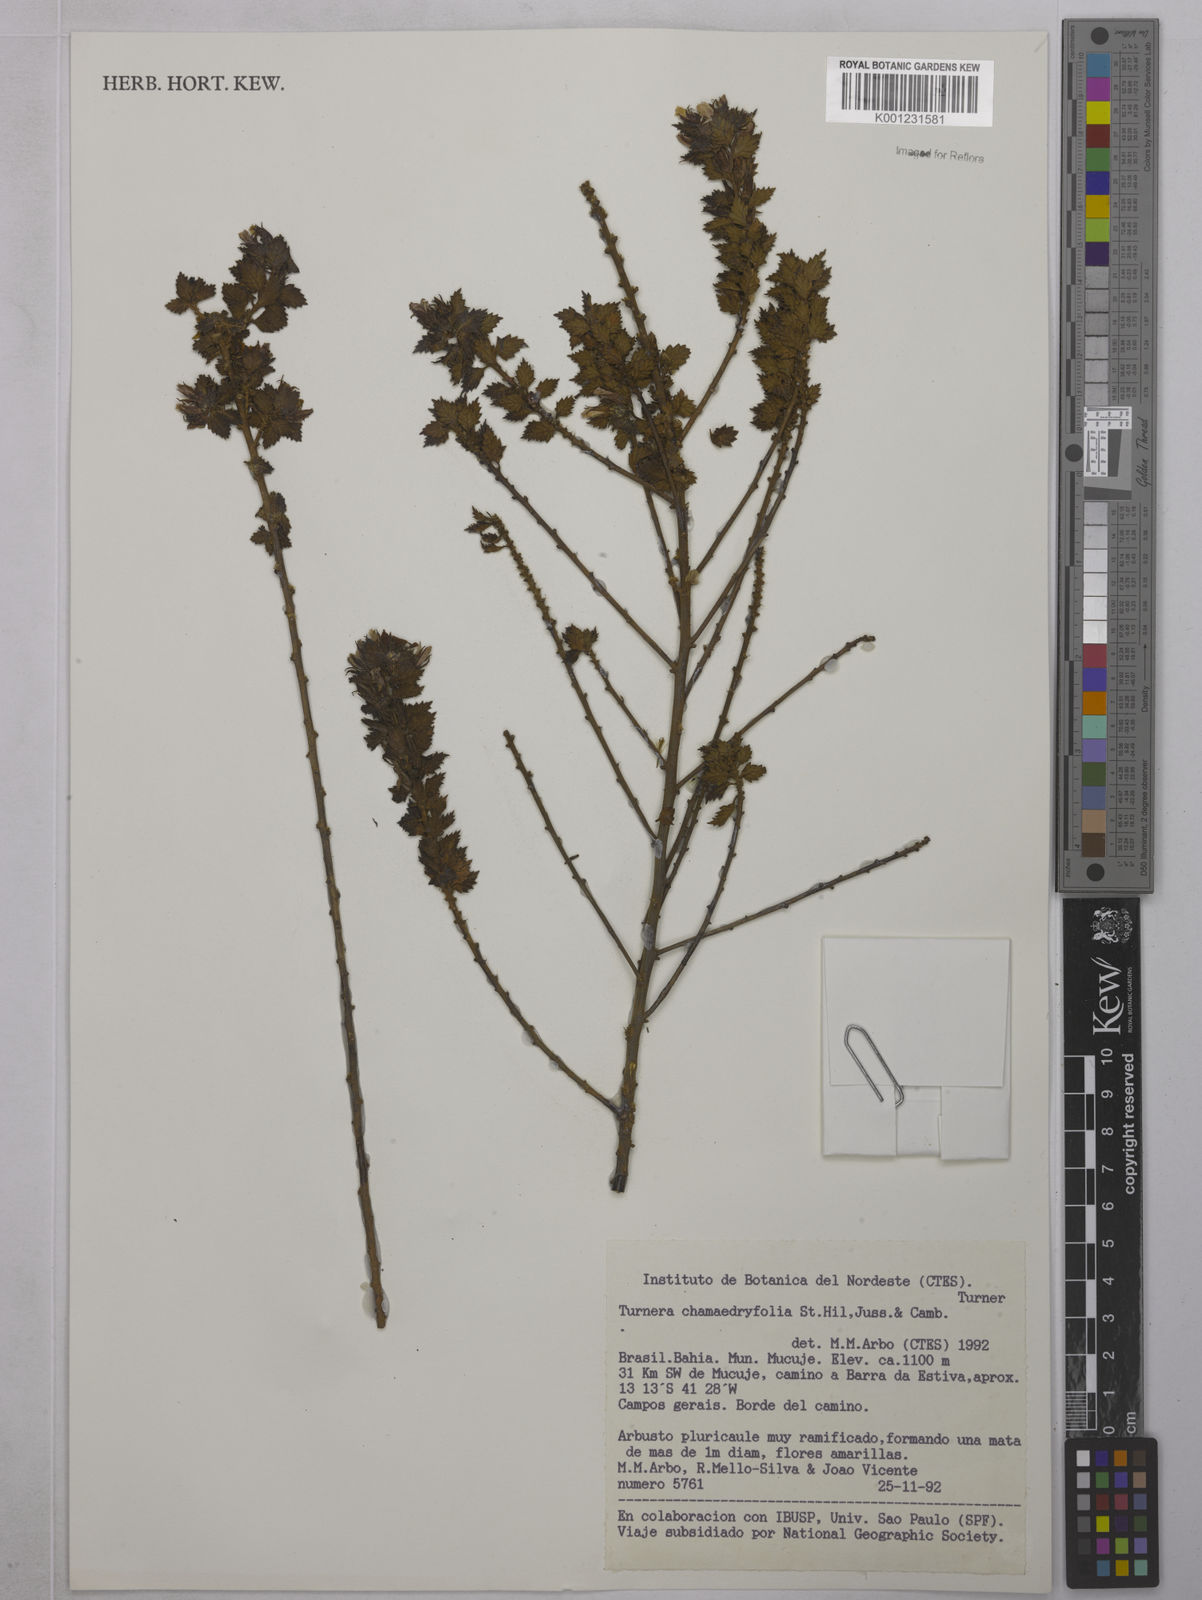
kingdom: Plantae
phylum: Tracheophyta
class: Magnoliopsida
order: Malpighiales
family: Turneraceae
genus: Turnera
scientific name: Turnera chamaedrifolia
